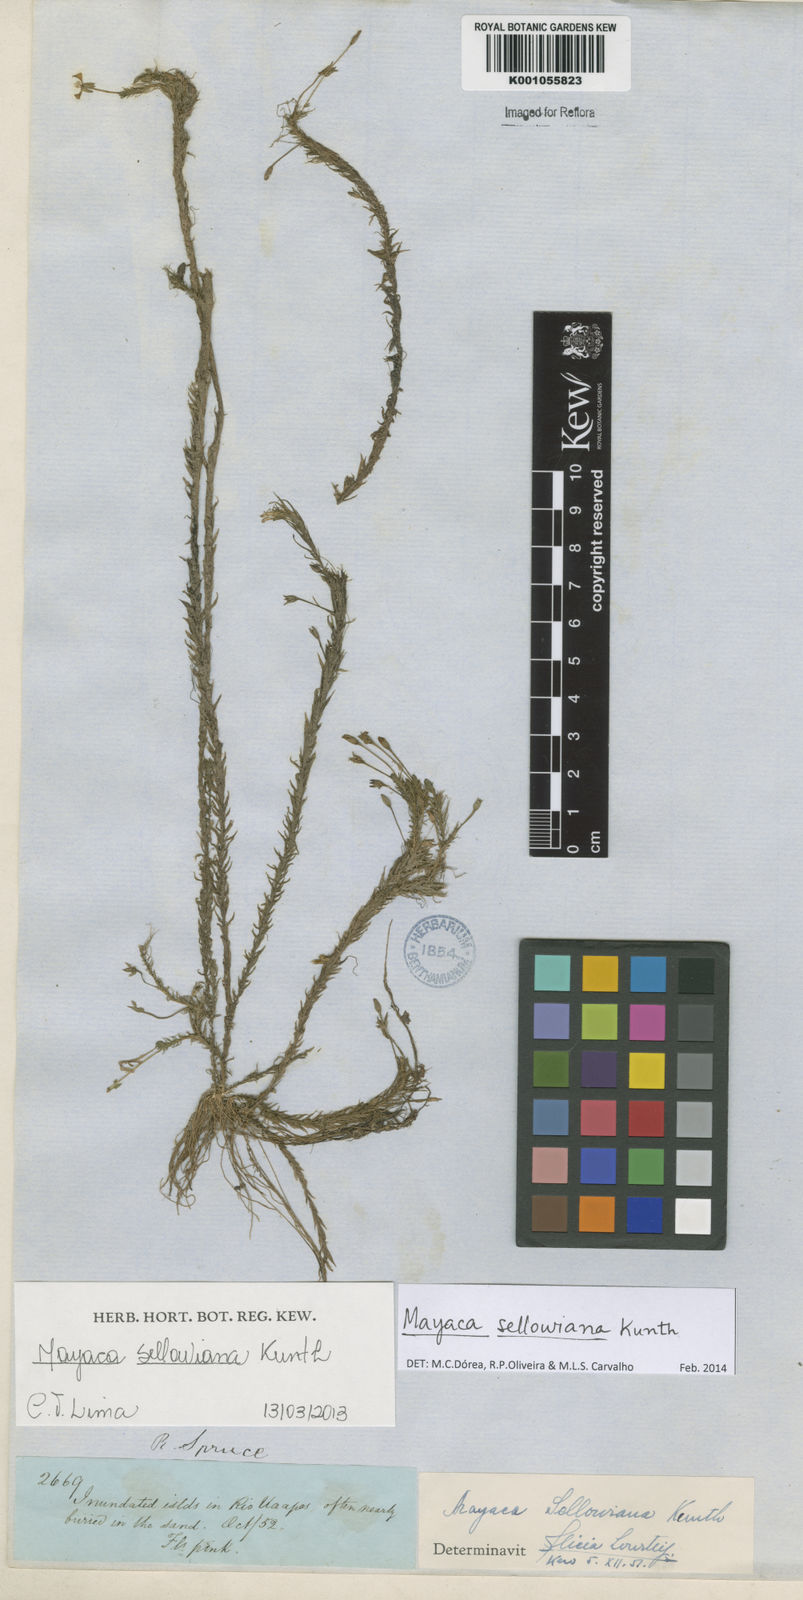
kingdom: Plantae
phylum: Tracheophyta
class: Liliopsida
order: Poales
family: Mayacaceae
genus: Mayaca
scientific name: Mayaca sellowiana
